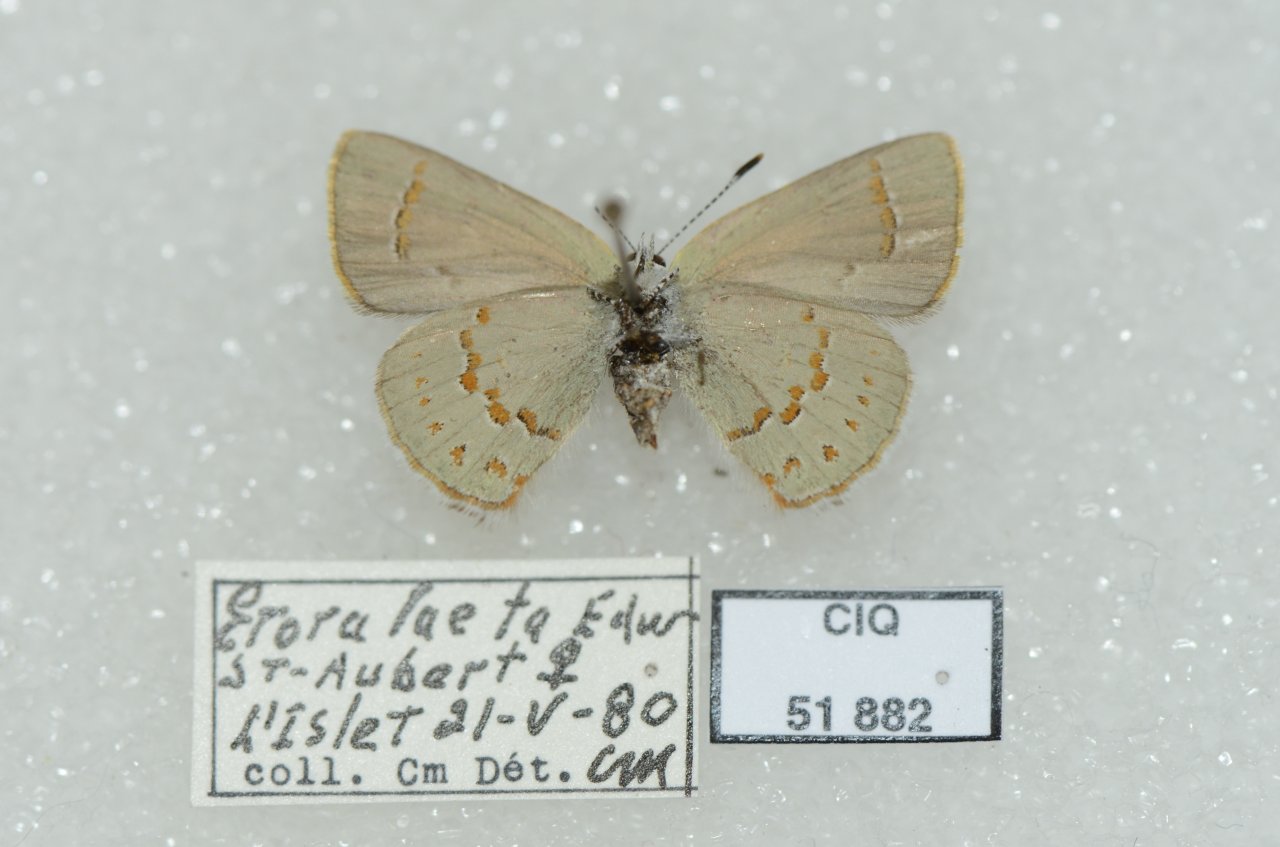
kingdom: Animalia
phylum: Arthropoda
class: Insecta
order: Lepidoptera
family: Lycaenidae
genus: Erora
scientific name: Erora laeta
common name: Early Hairstreak
